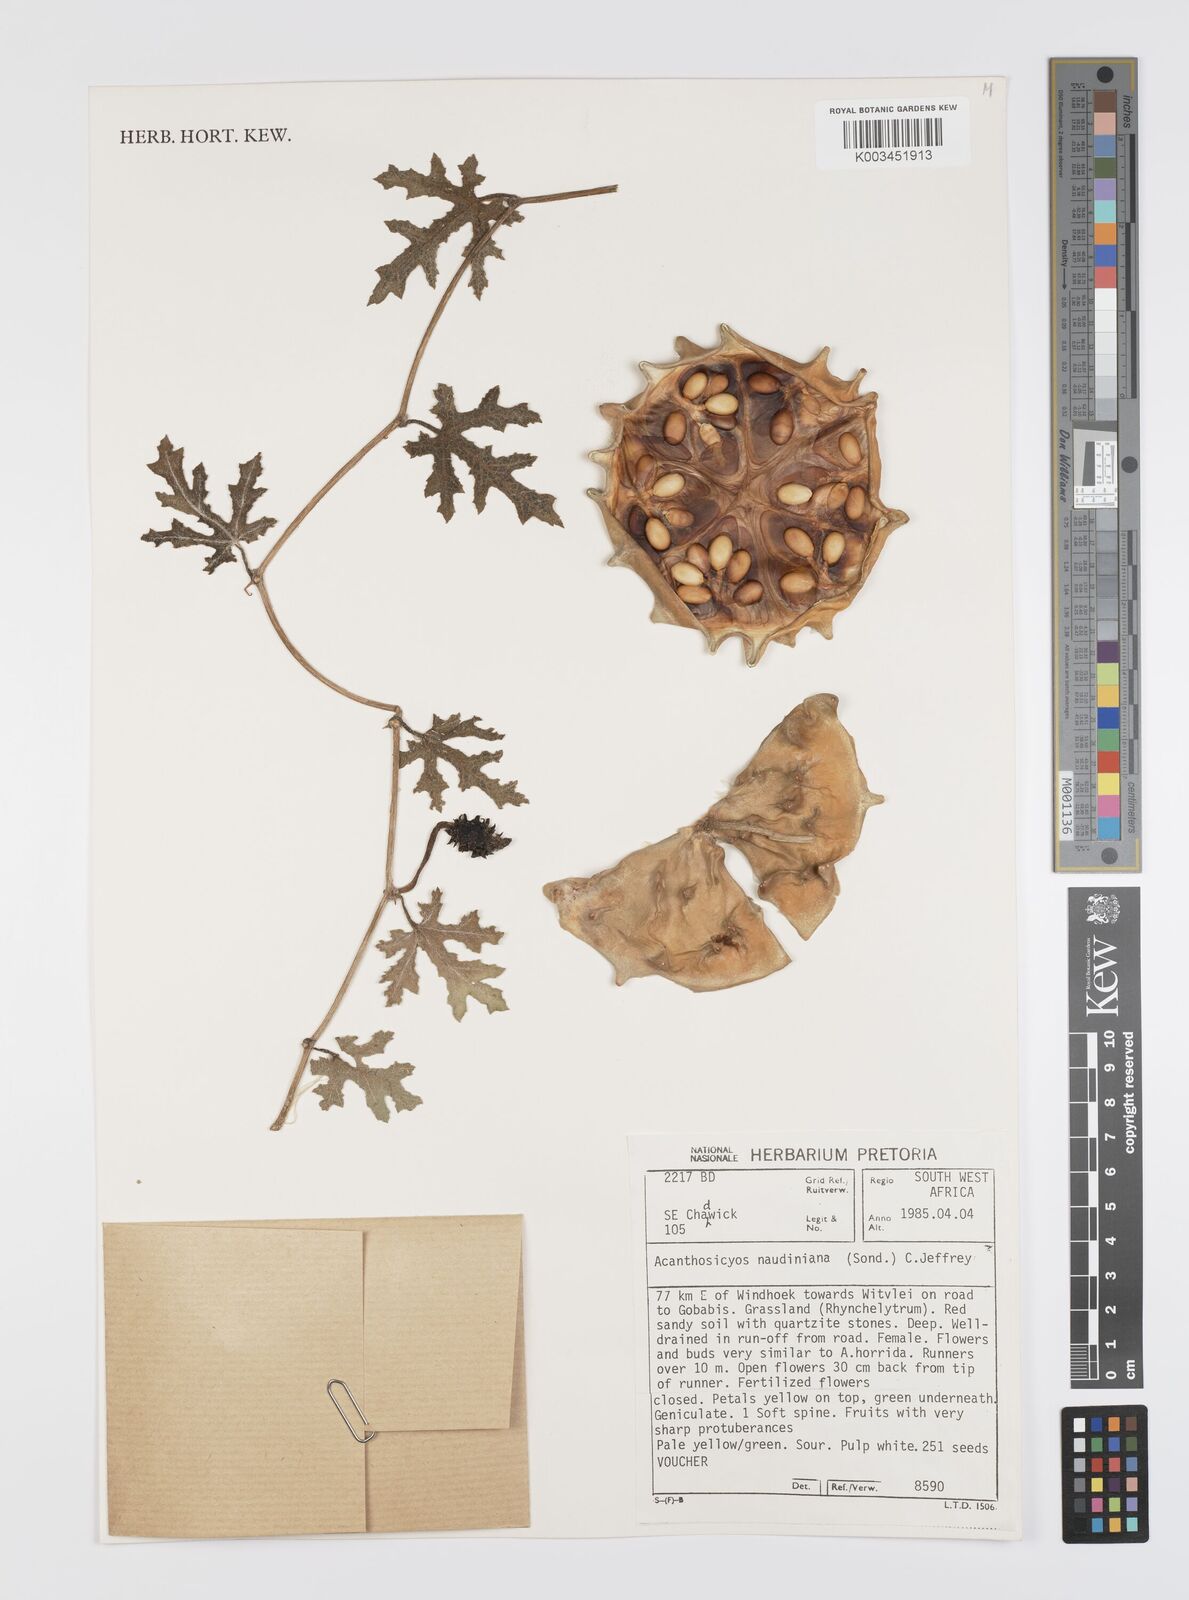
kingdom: Plantae
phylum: Tracheophyta
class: Magnoliopsida
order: Cucurbitales
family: Cucurbitaceae
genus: Citrullus
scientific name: Citrullus naudinianus
